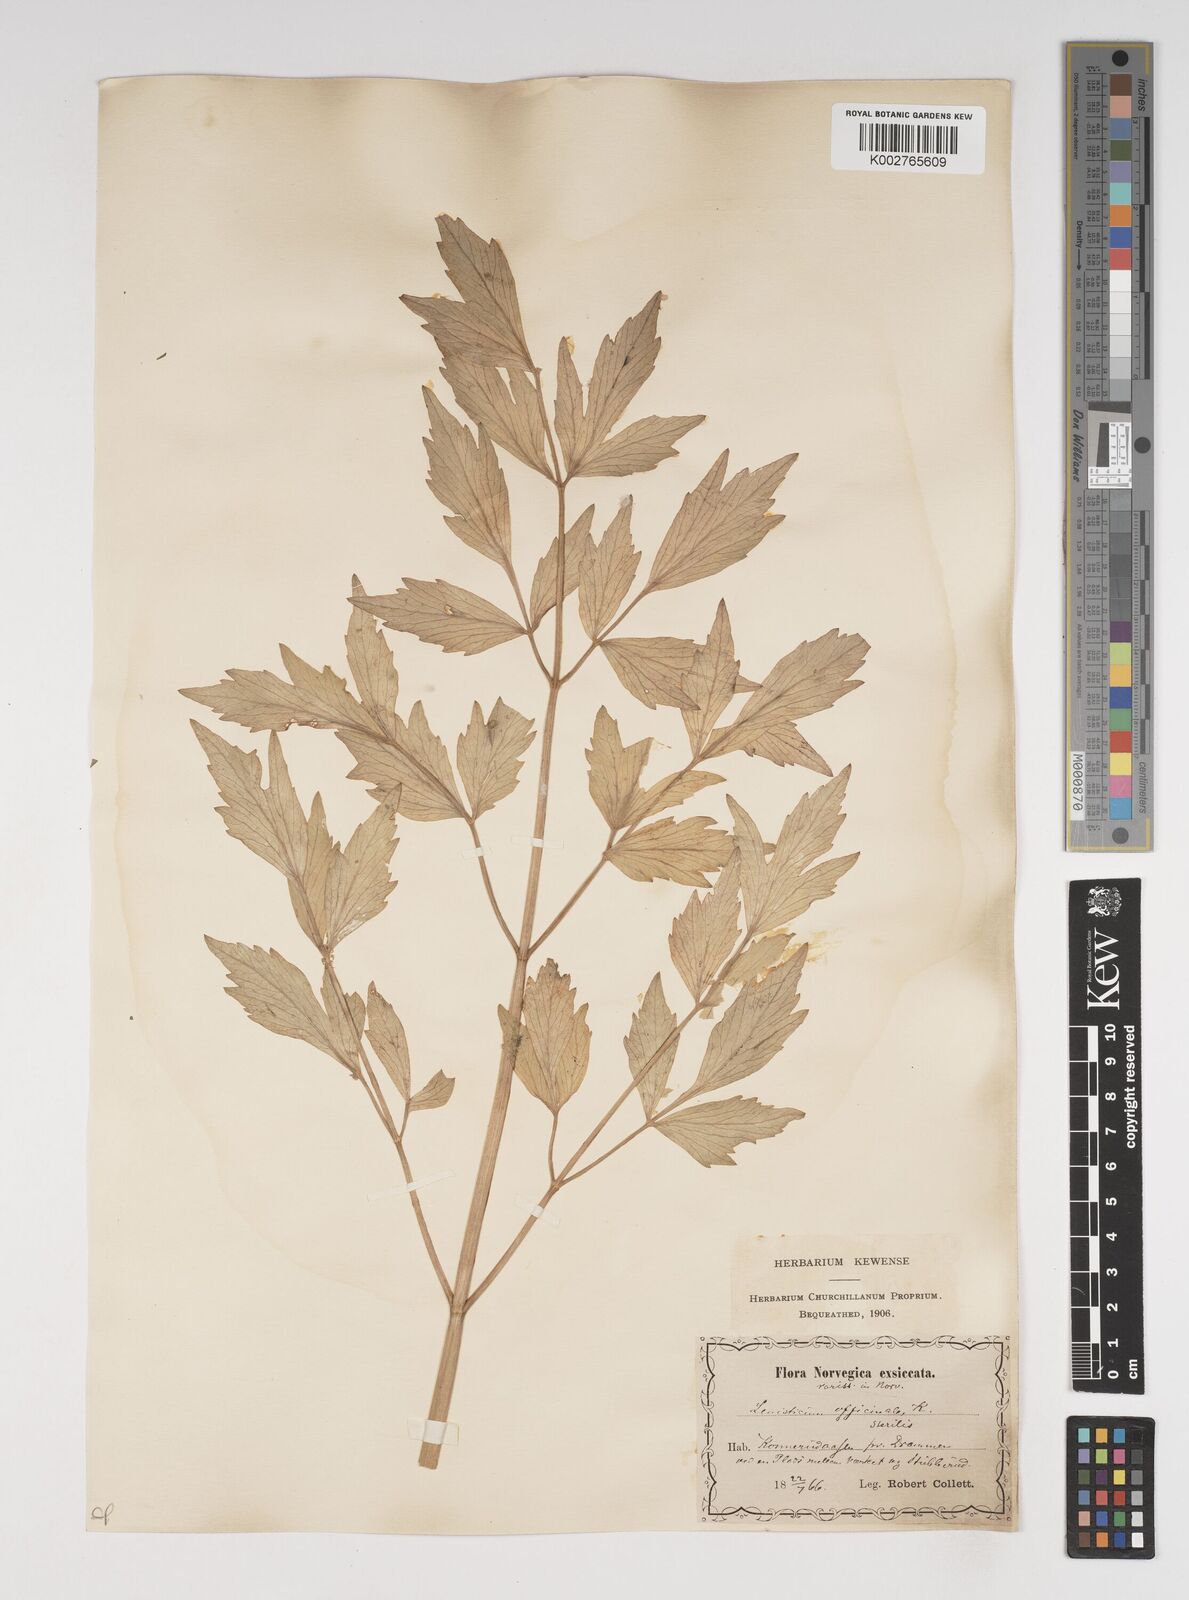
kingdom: Plantae
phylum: Tracheophyta
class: Magnoliopsida
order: Apiales
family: Apiaceae
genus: Levisticum
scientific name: Levisticum officinale
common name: Lovage
